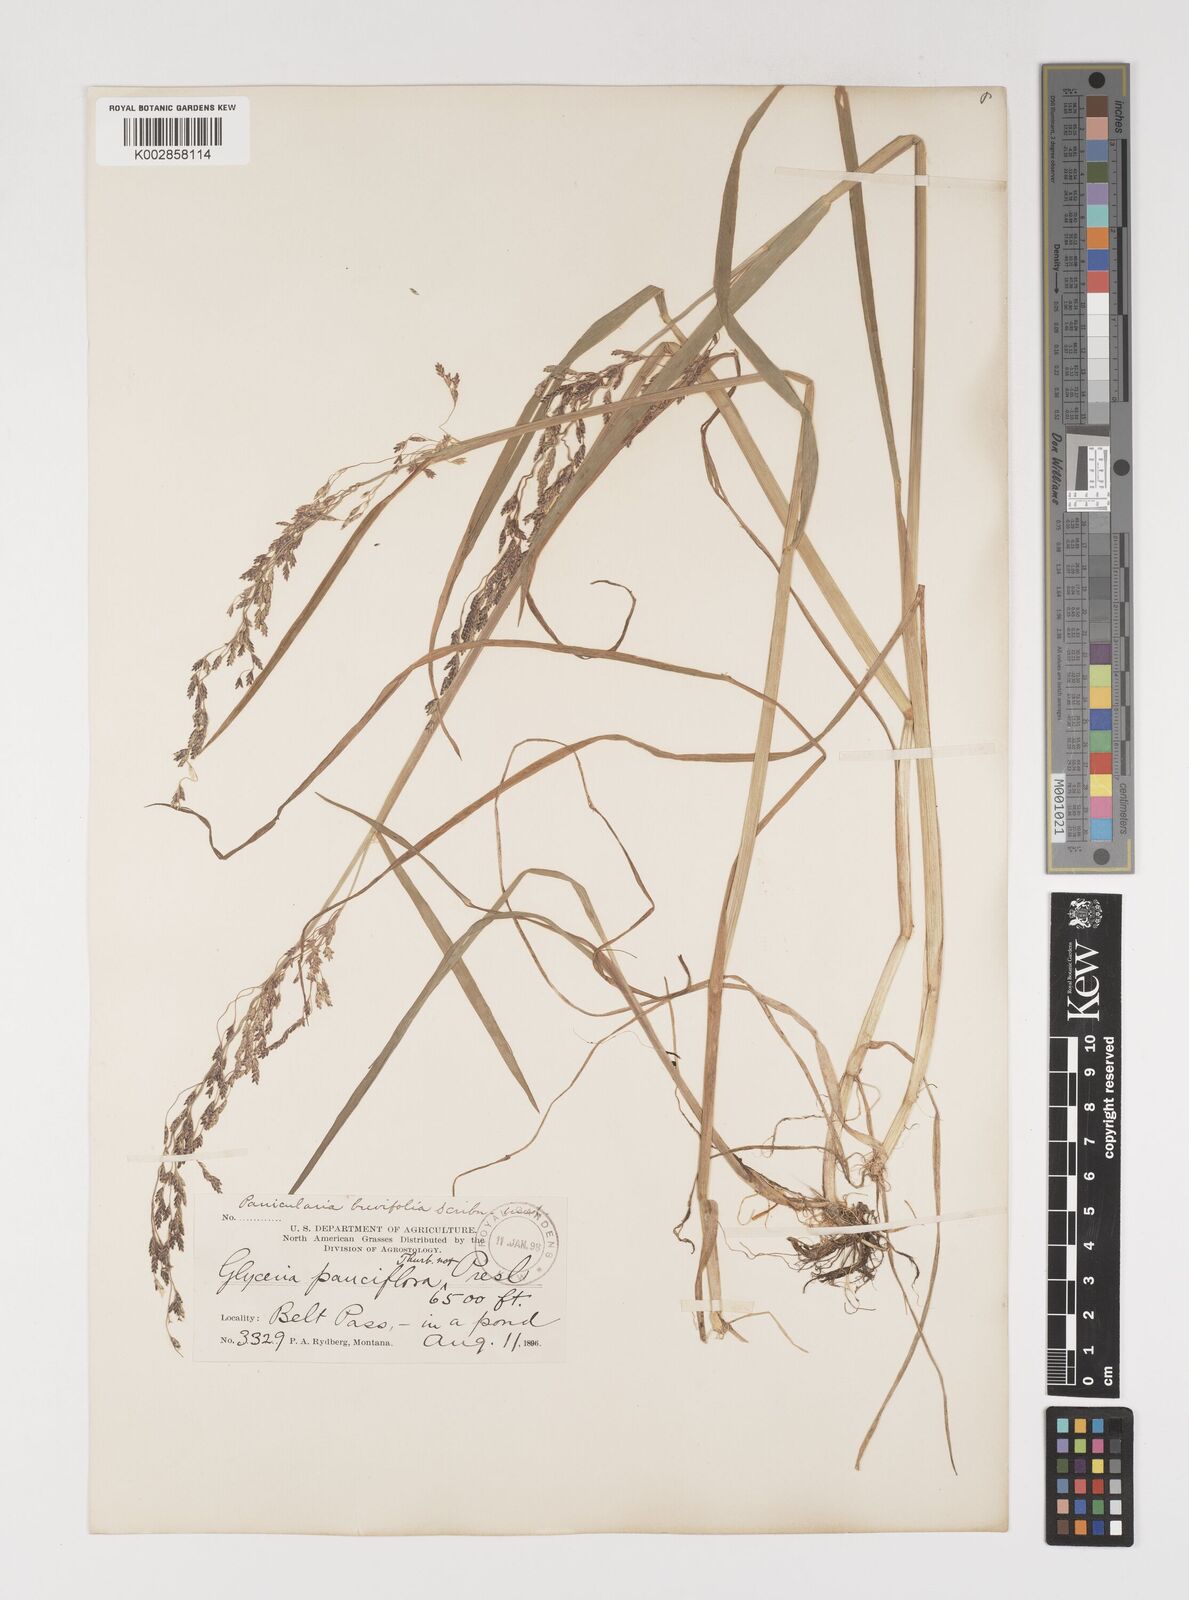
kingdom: Plantae
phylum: Tracheophyta
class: Liliopsida
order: Poales
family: Poaceae
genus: Torreyochloa
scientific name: Torreyochloa pallida
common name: Pale false mannagrass
